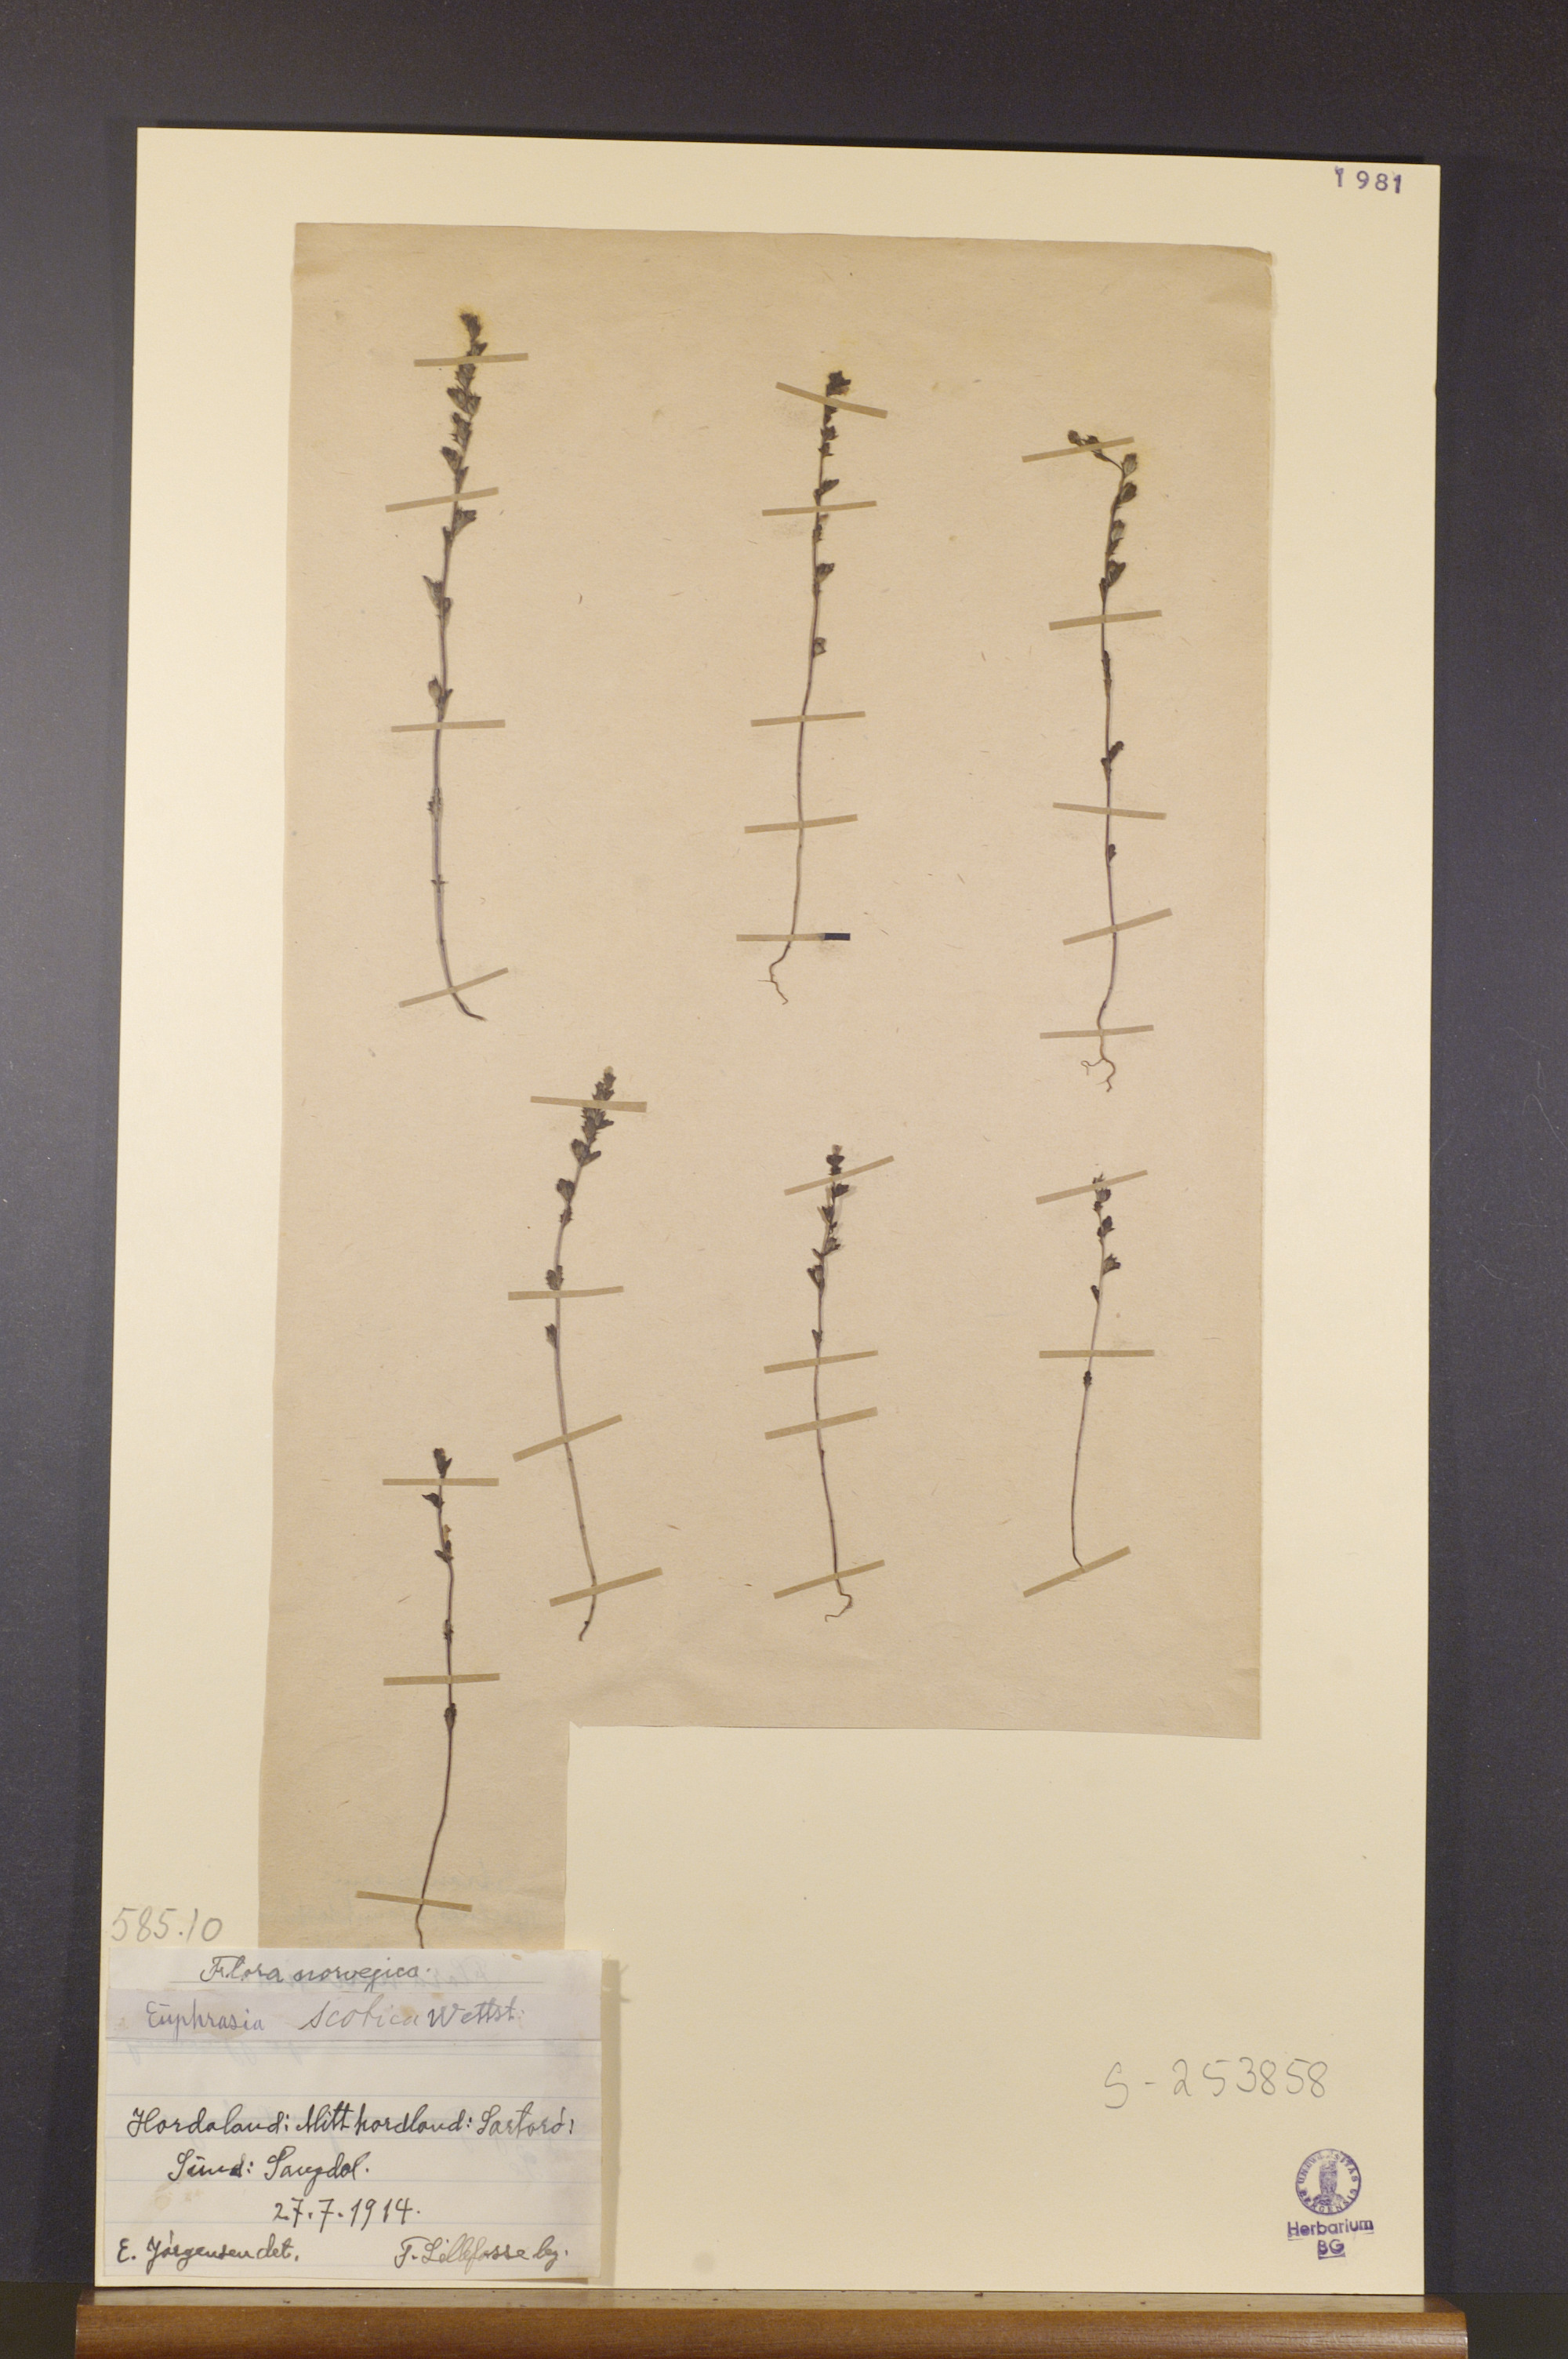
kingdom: Plantae
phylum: Tracheophyta
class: Magnoliopsida
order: Lamiales
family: Orobanchaceae
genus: Euphrasia
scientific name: Euphrasia scottica
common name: Slender scottish eyebright
